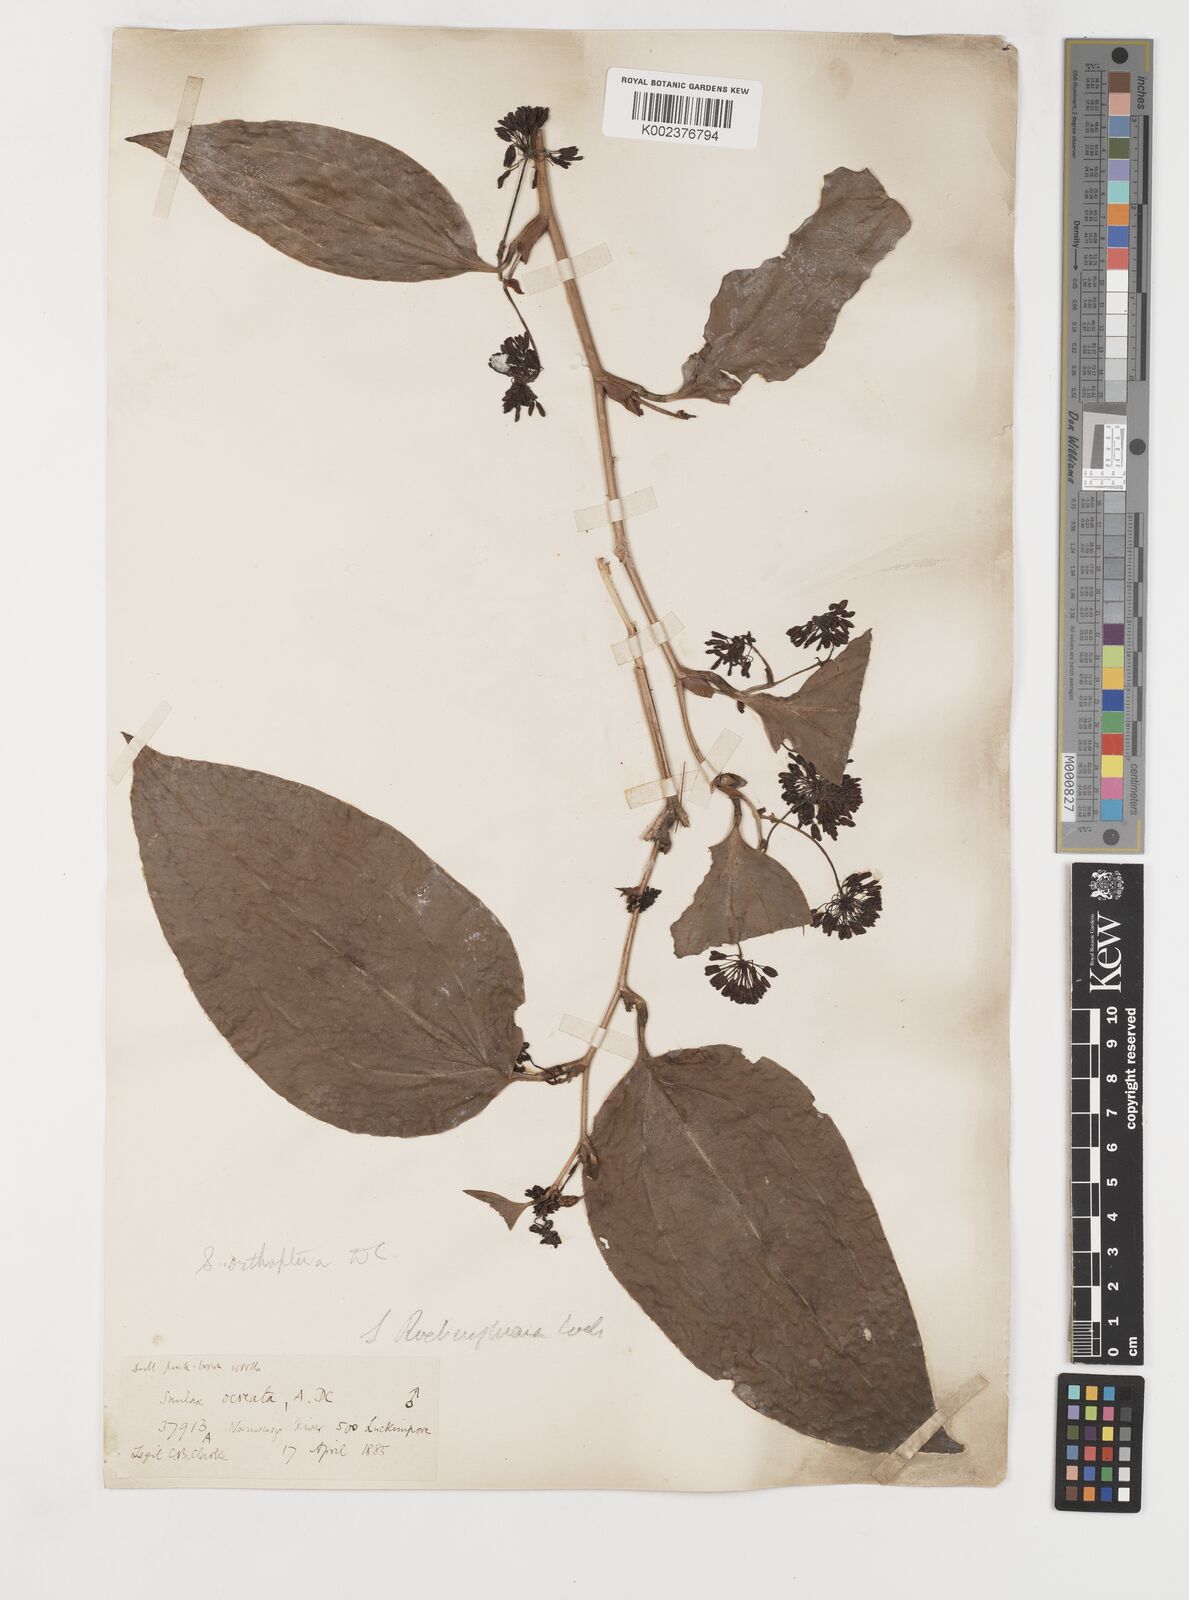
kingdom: Plantae
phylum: Tracheophyta
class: Liliopsida
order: Liliales
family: Smilacaceae
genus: Smilax
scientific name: Smilax orthoptera
